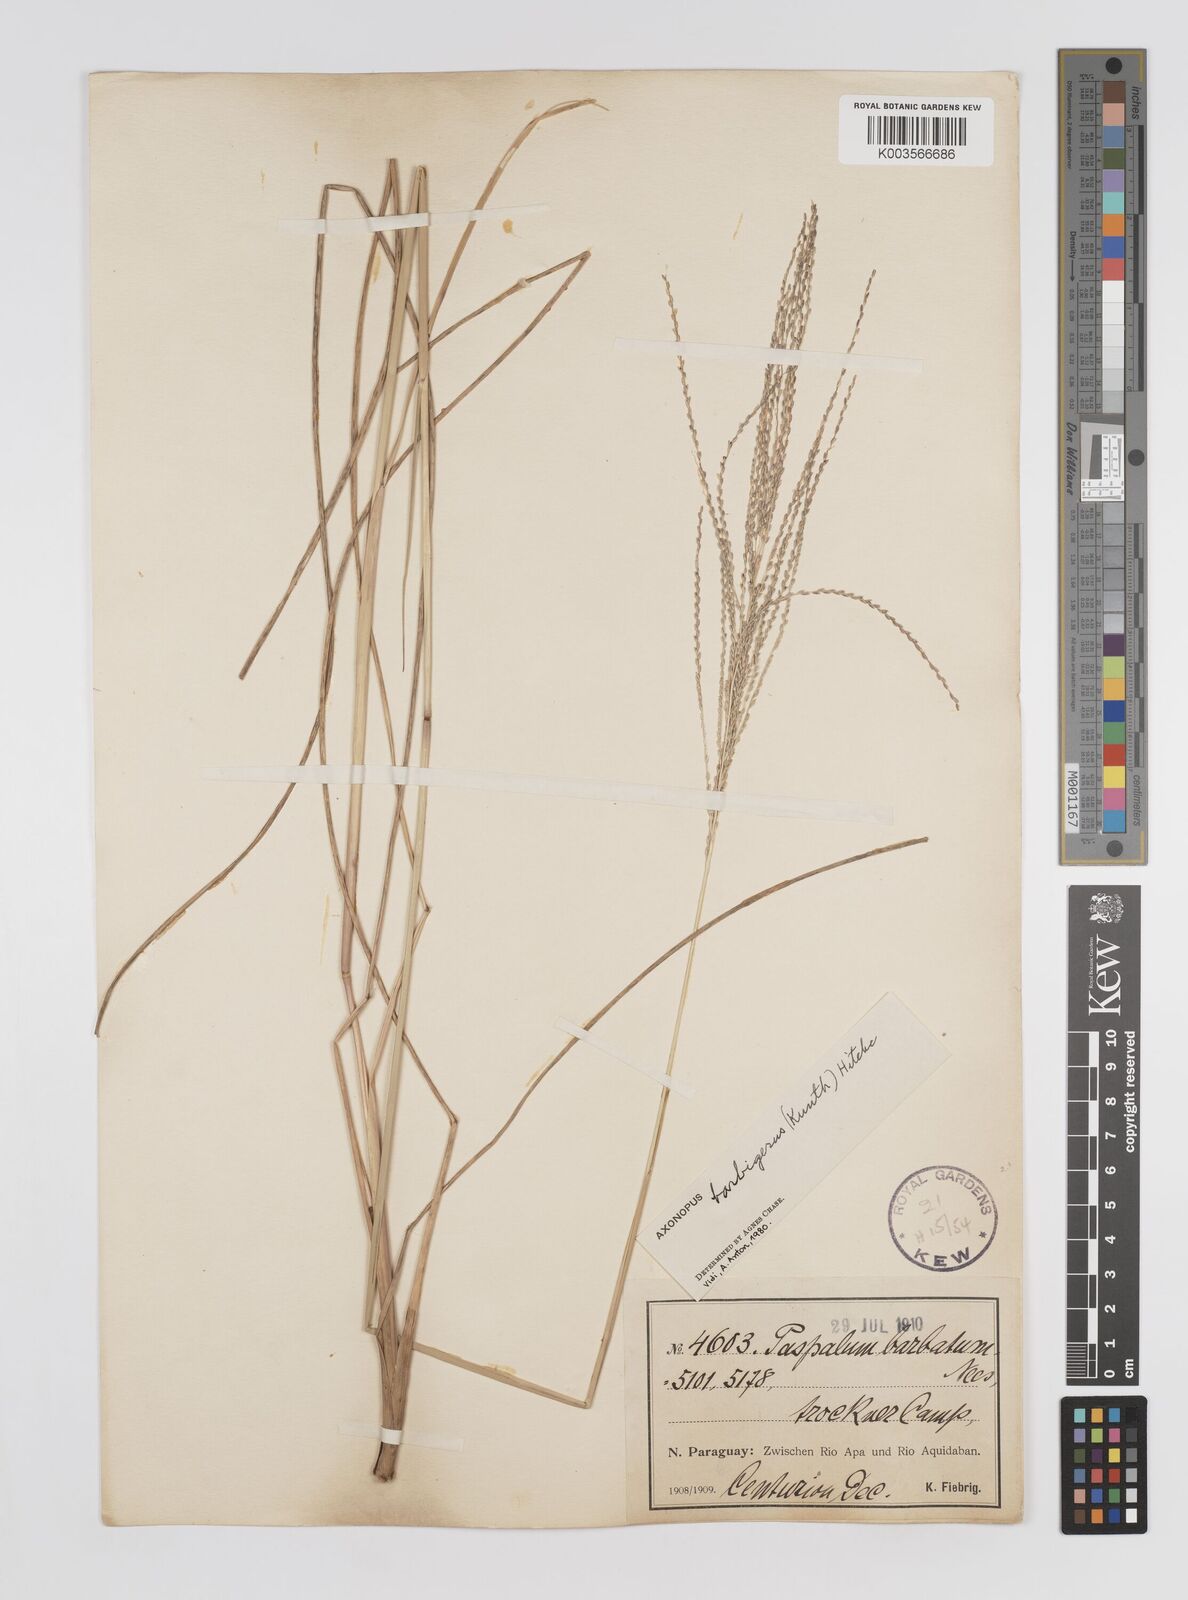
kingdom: Plantae
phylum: Tracheophyta
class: Liliopsida
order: Poales
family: Poaceae
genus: Axonopus
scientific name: Axonopus siccus
